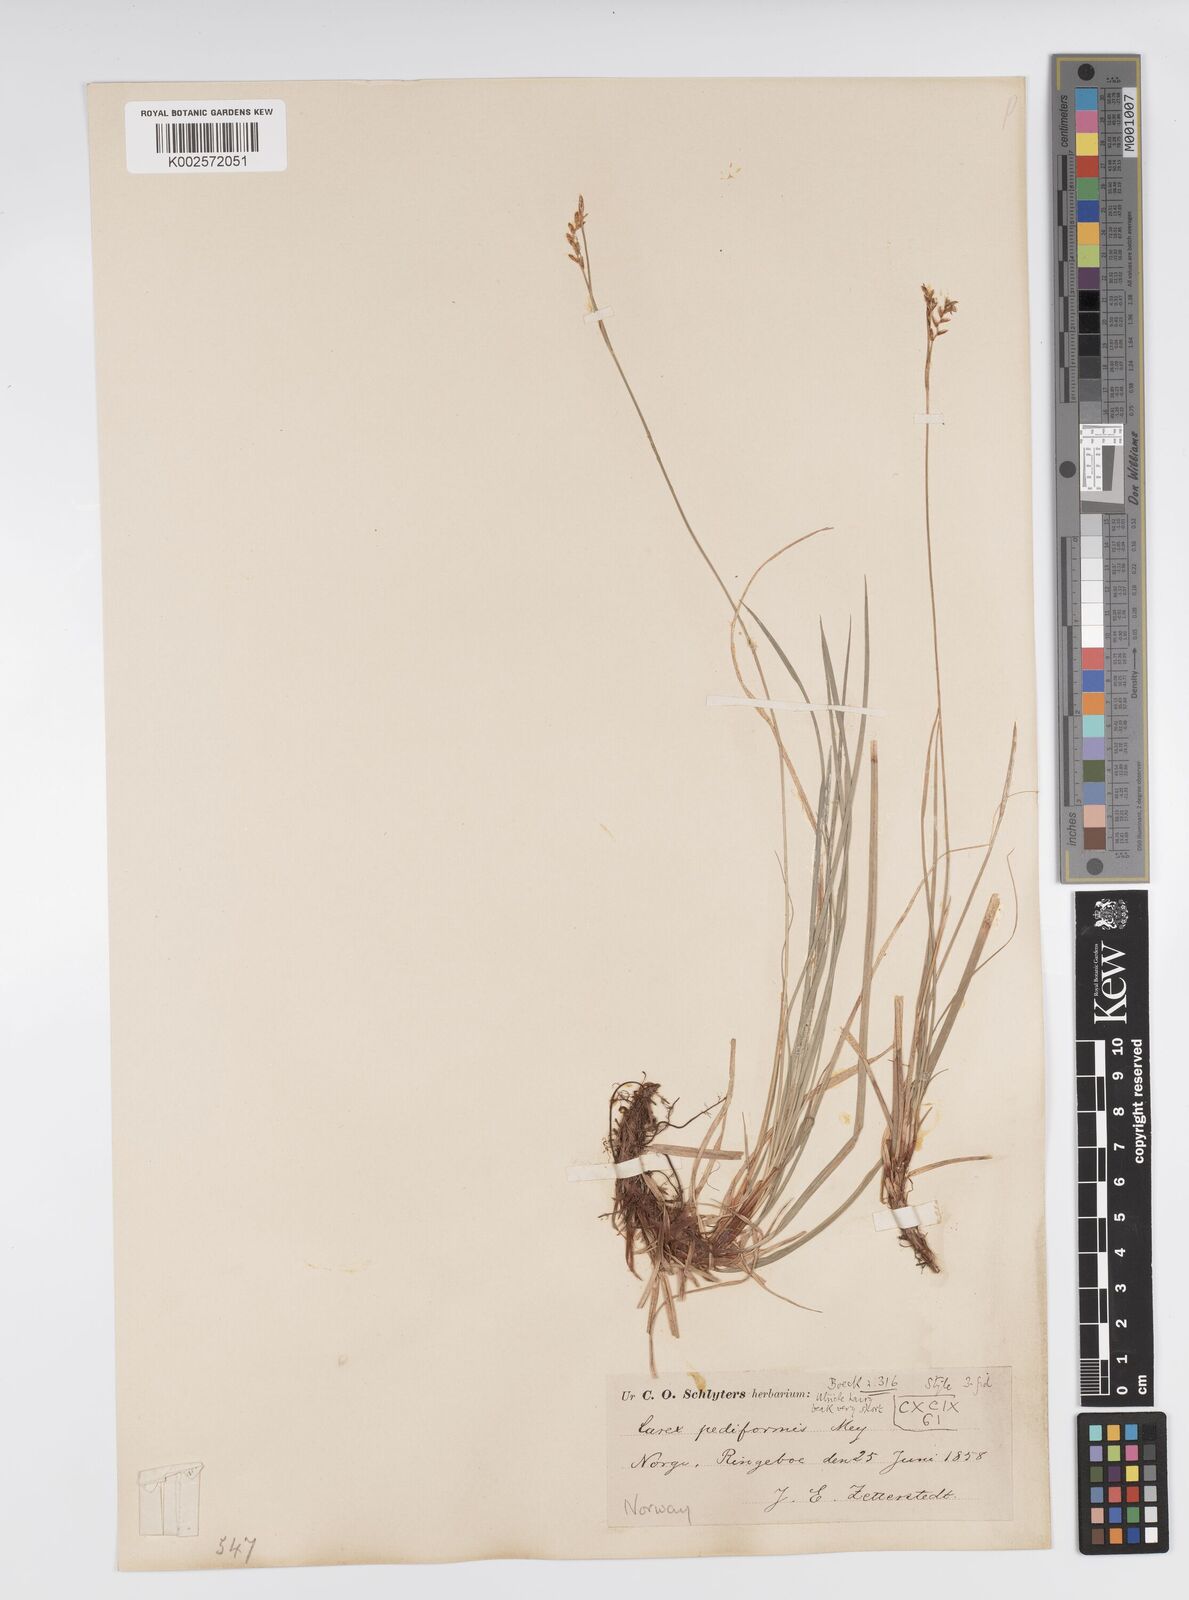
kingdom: Plantae
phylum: Tracheophyta
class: Liliopsida
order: Poales
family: Cyperaceae
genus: Carex
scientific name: Carex pediformis
